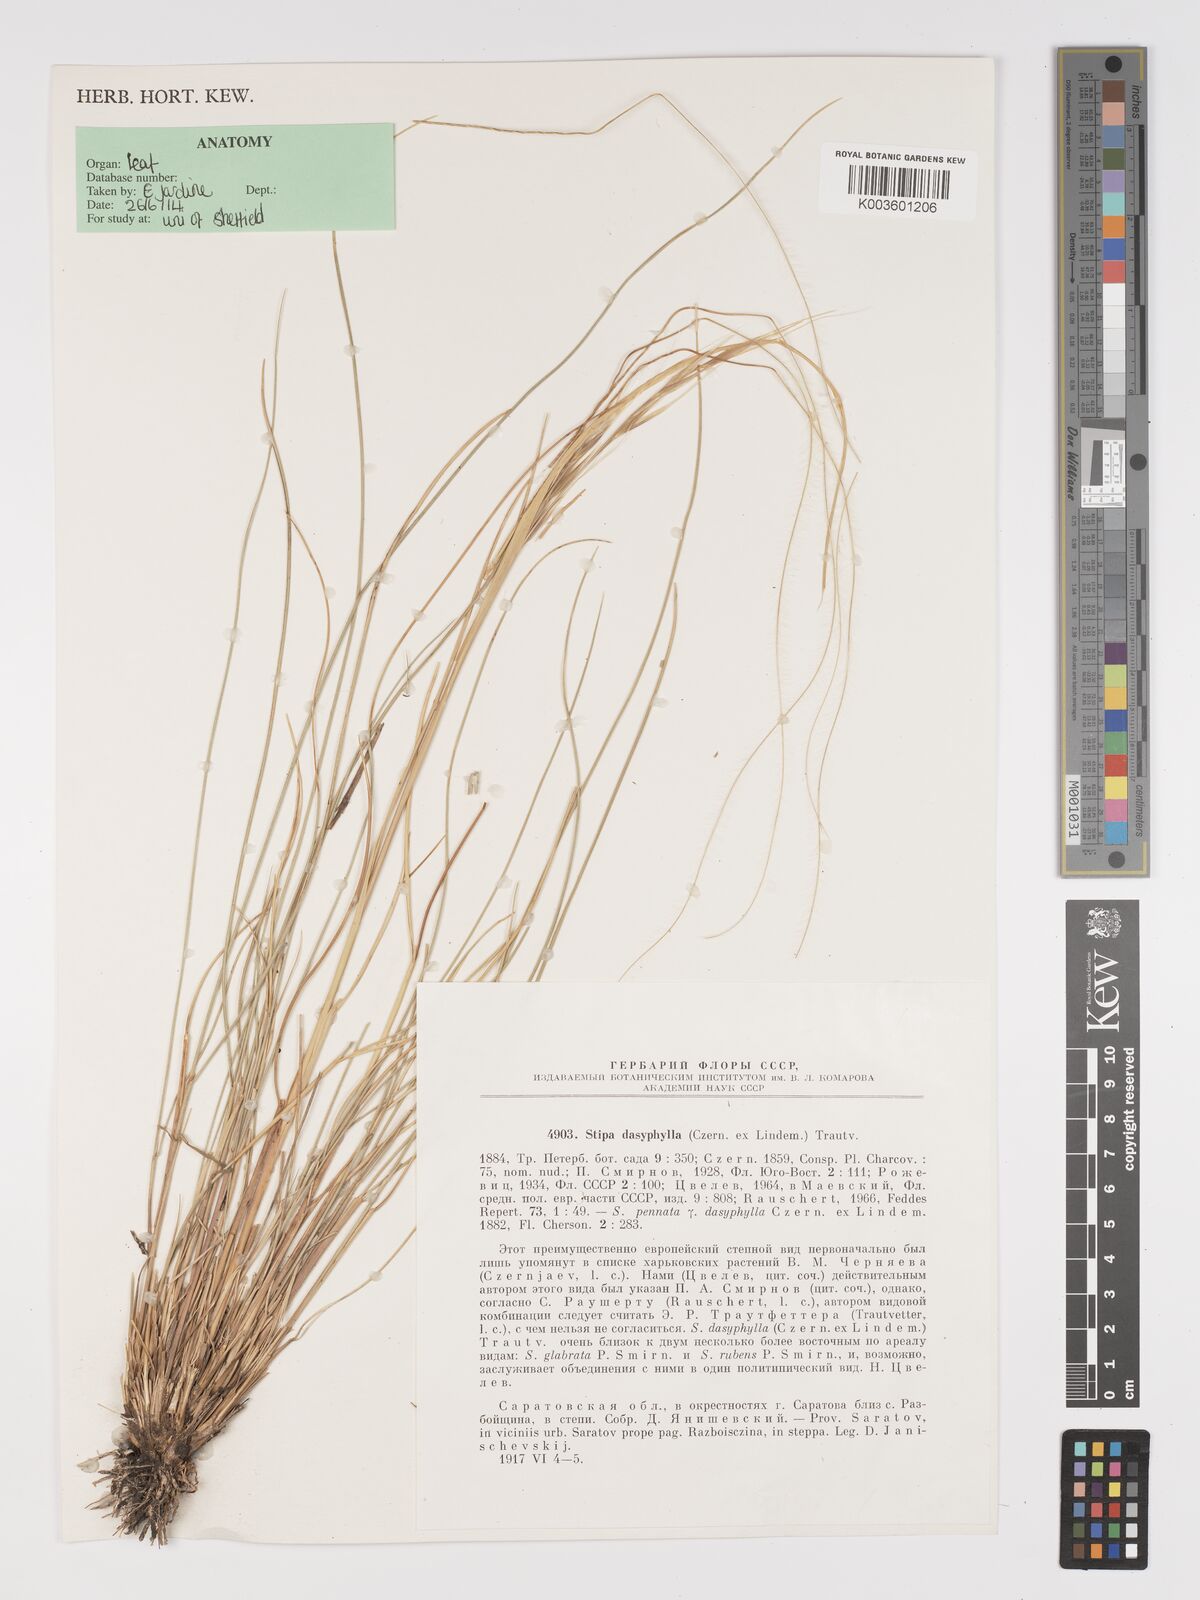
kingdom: Plantae
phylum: Tracheophyta
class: Liliopsida
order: Poales
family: Poaceae
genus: Stipa
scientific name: Stipa dasyphylla
